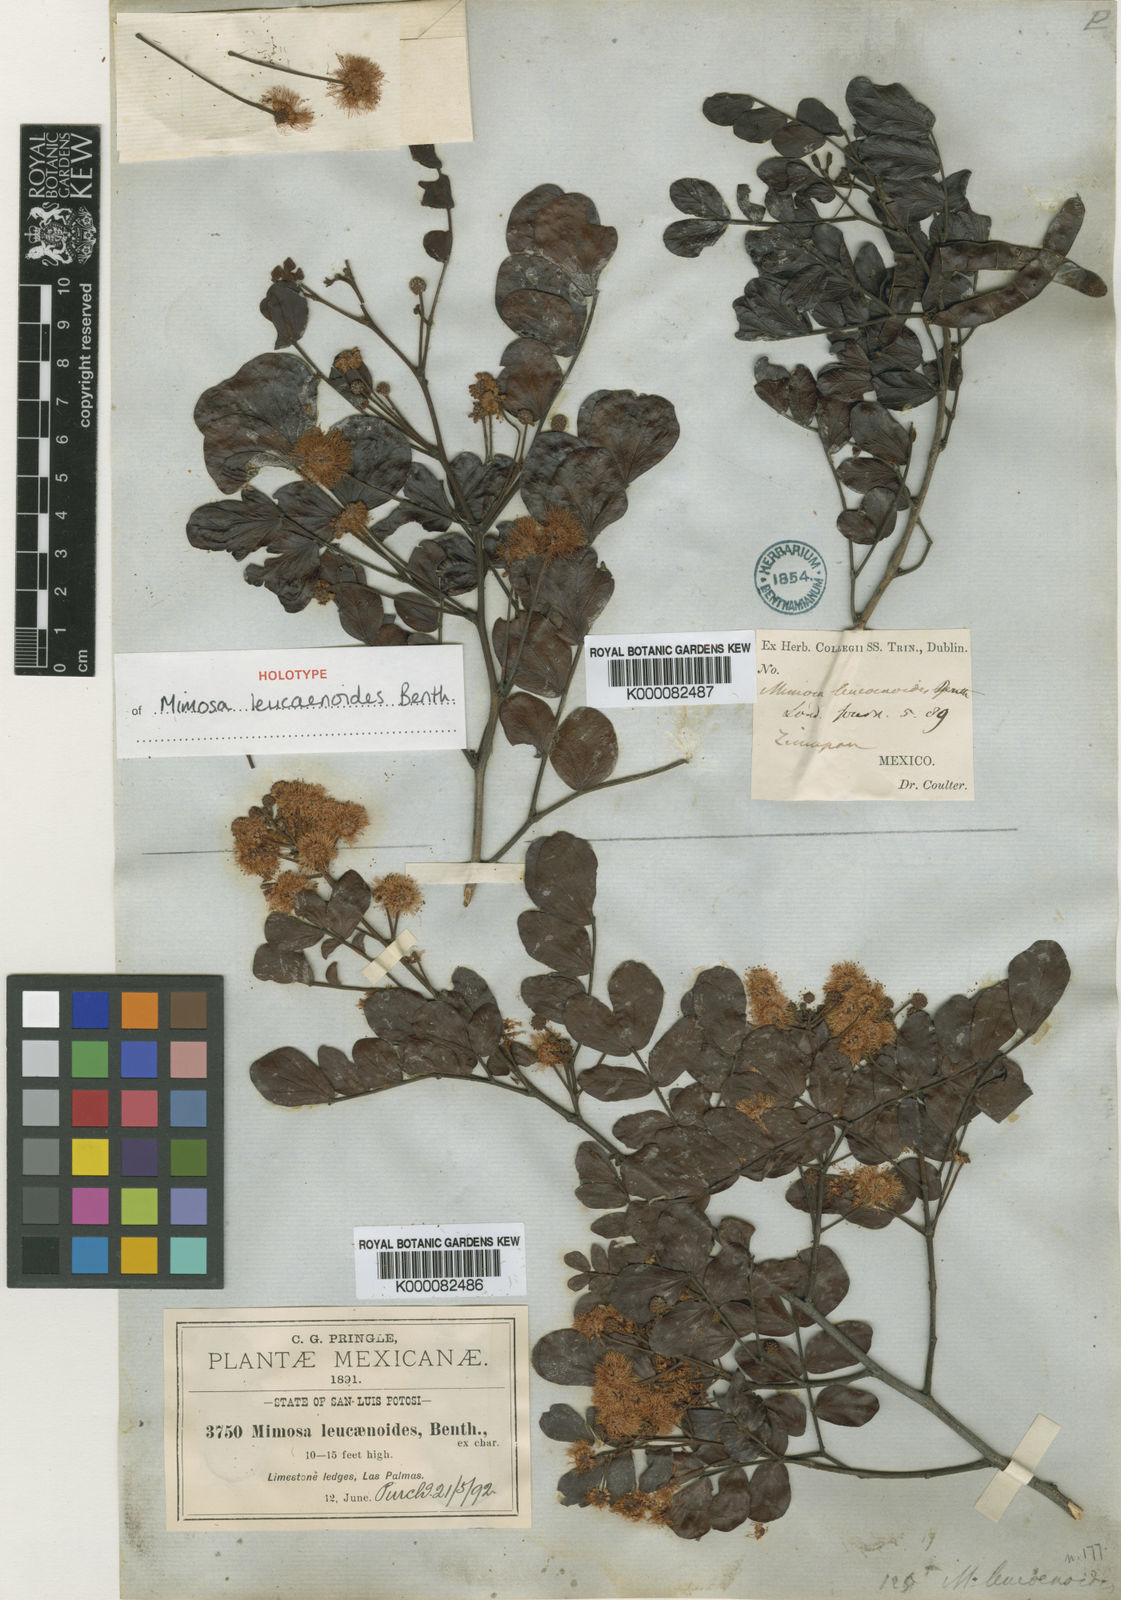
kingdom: Plantae
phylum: Tracheophyta
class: Magnoliopsida
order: Fabales
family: Fabaceae
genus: Mimosa
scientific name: Mimosa leucaenoides
